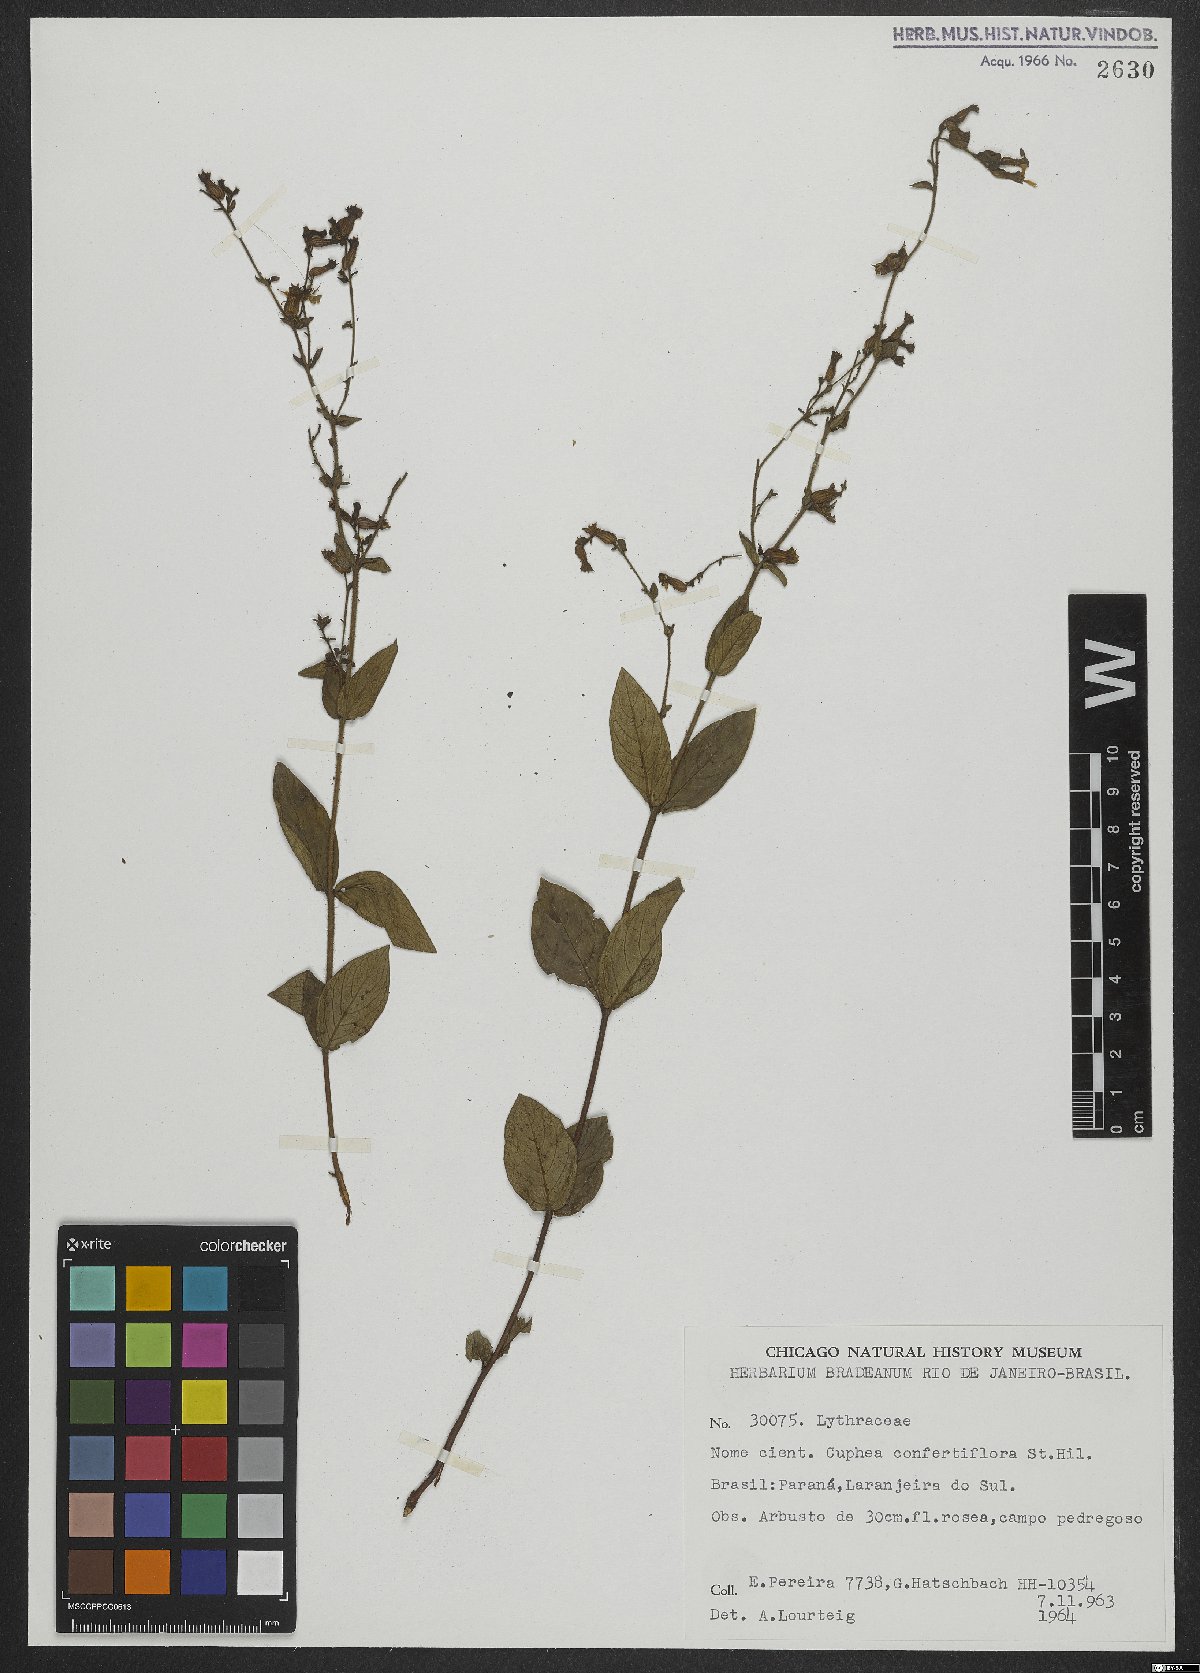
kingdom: Plantae
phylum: Tracheophyta
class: Magnoliopsida
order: Myrtales
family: Lythraceae
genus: Cuphea
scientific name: Cuphea confertiflora
